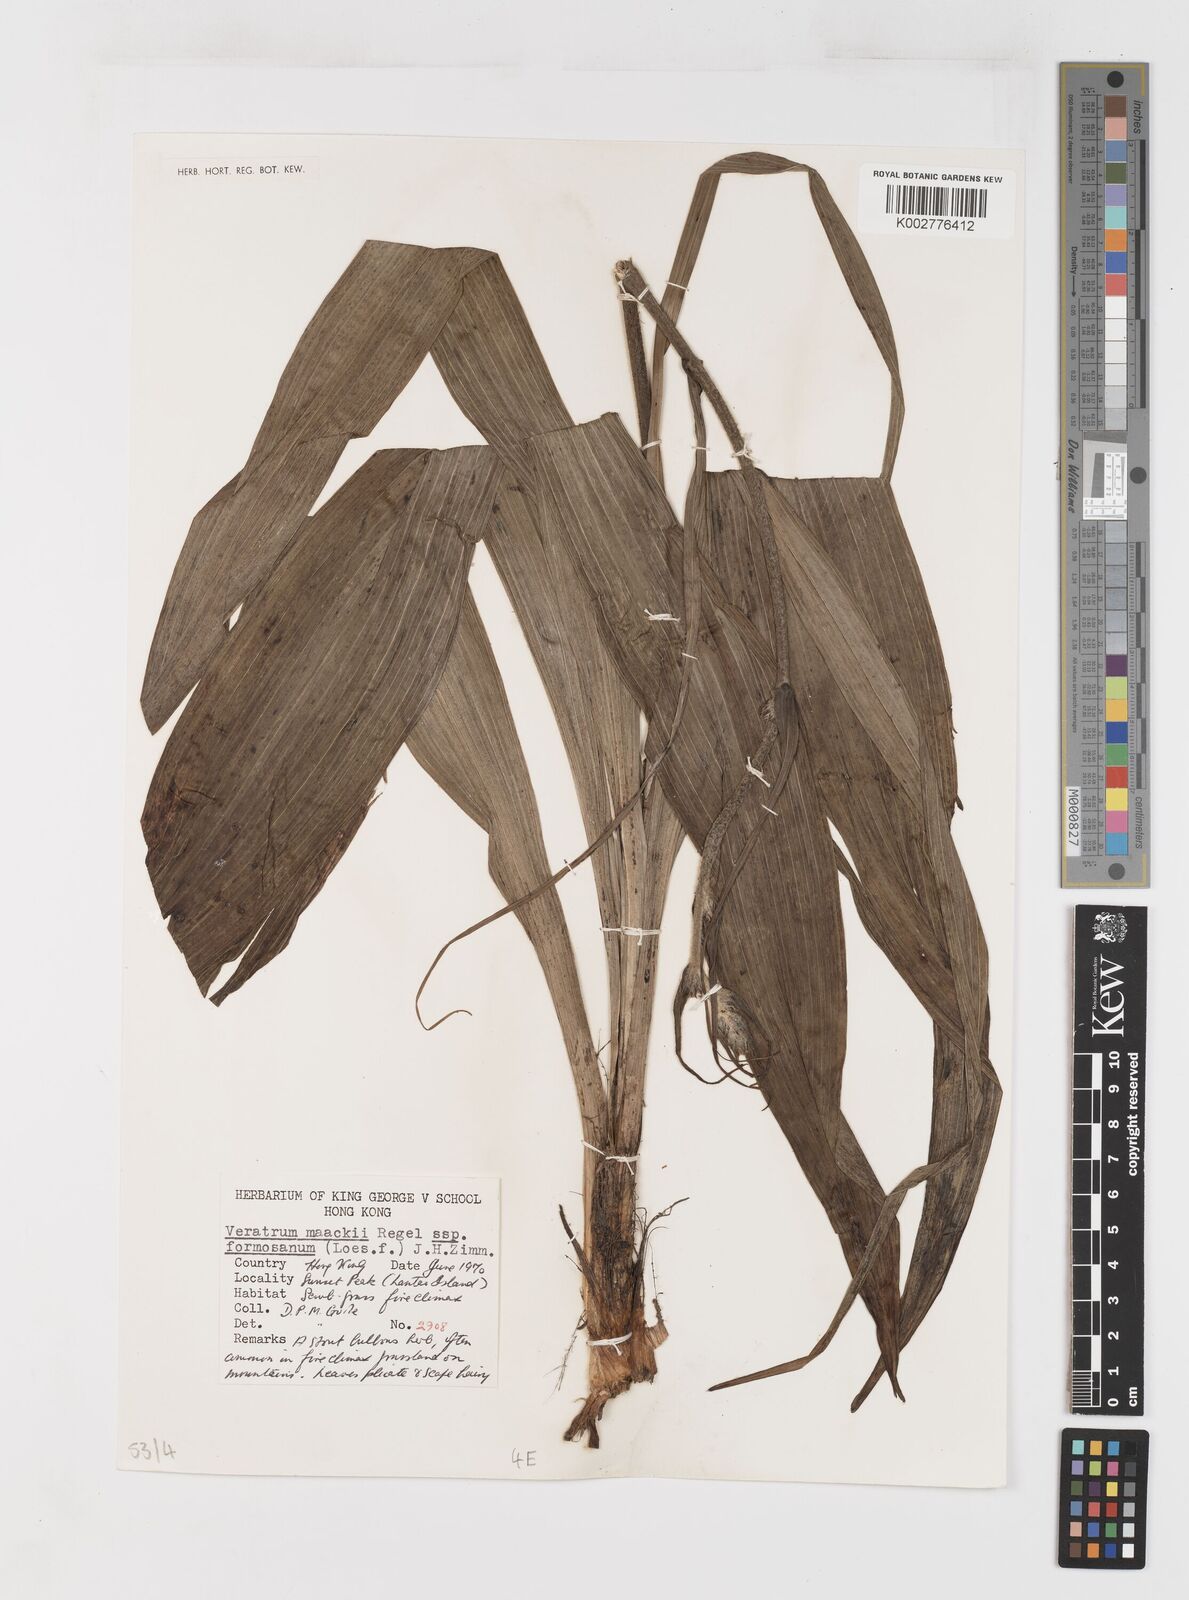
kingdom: Plantae
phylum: Tracheophyta
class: Liliopsida
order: Liliales
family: Melanthiaceae
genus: Veratrum
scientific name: Veratrum maackii
